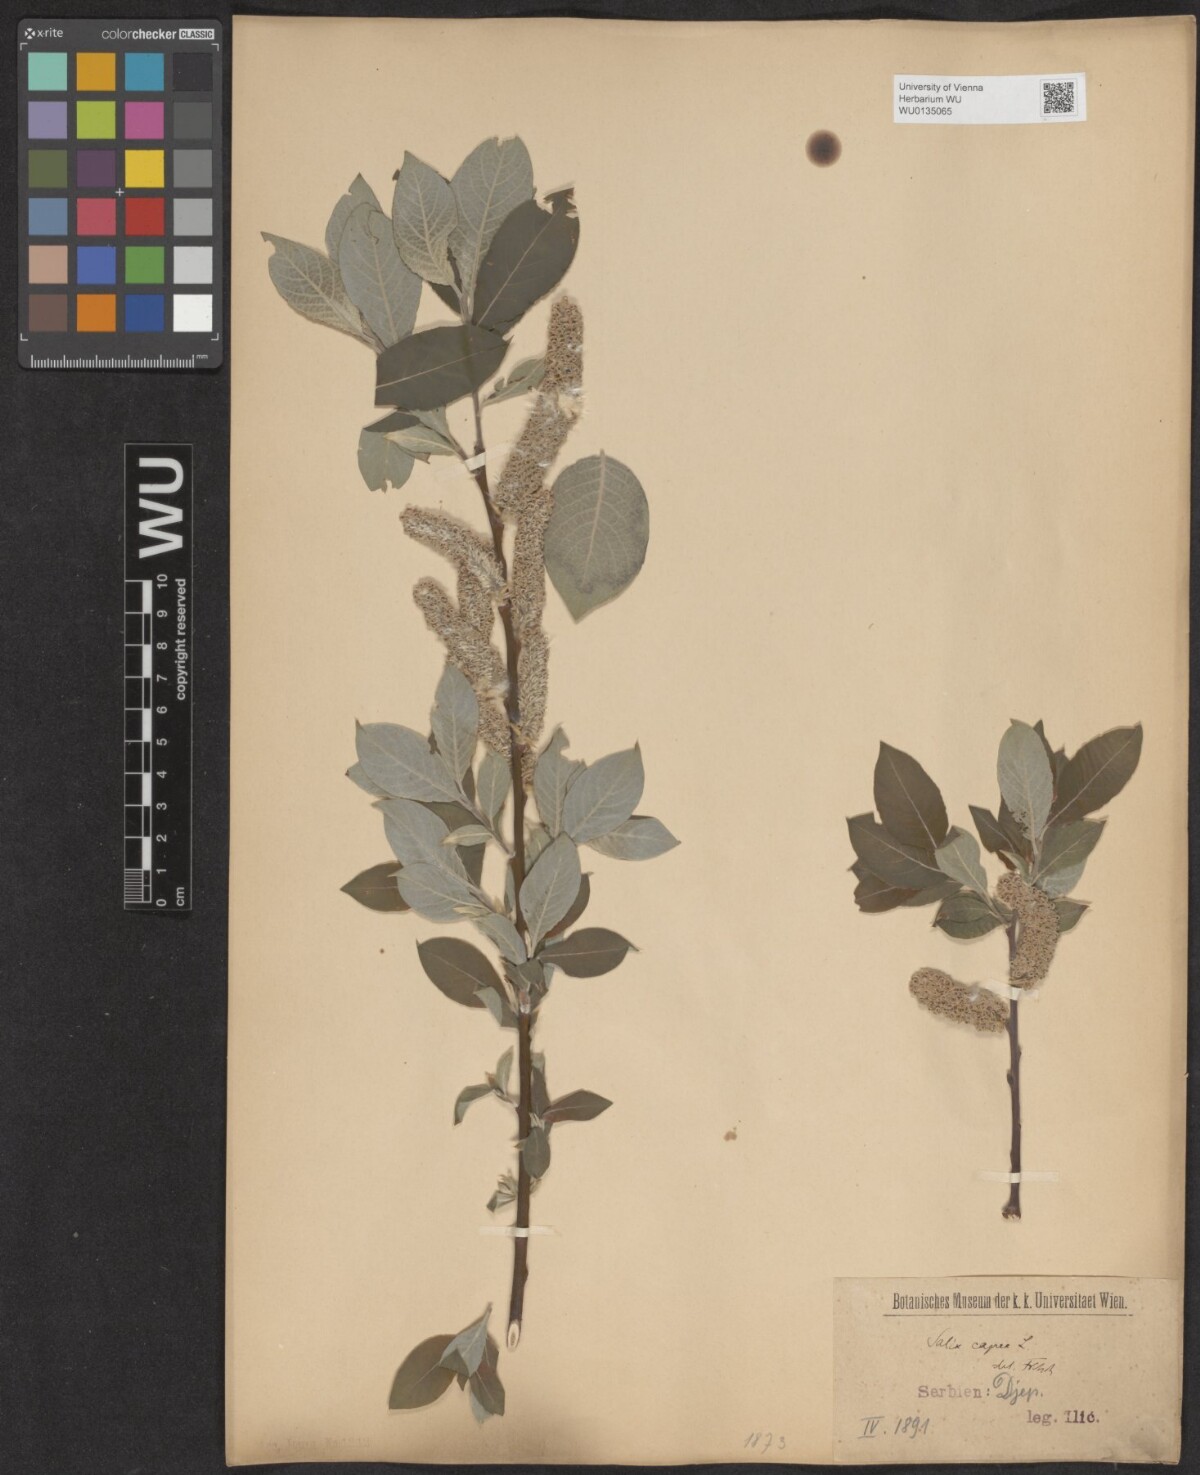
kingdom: Plantae
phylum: Tracheophyta
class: Magnoliopsida
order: Malpighiales
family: Salicaceae
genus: Salix
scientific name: Salix caprea
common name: Goat willow
